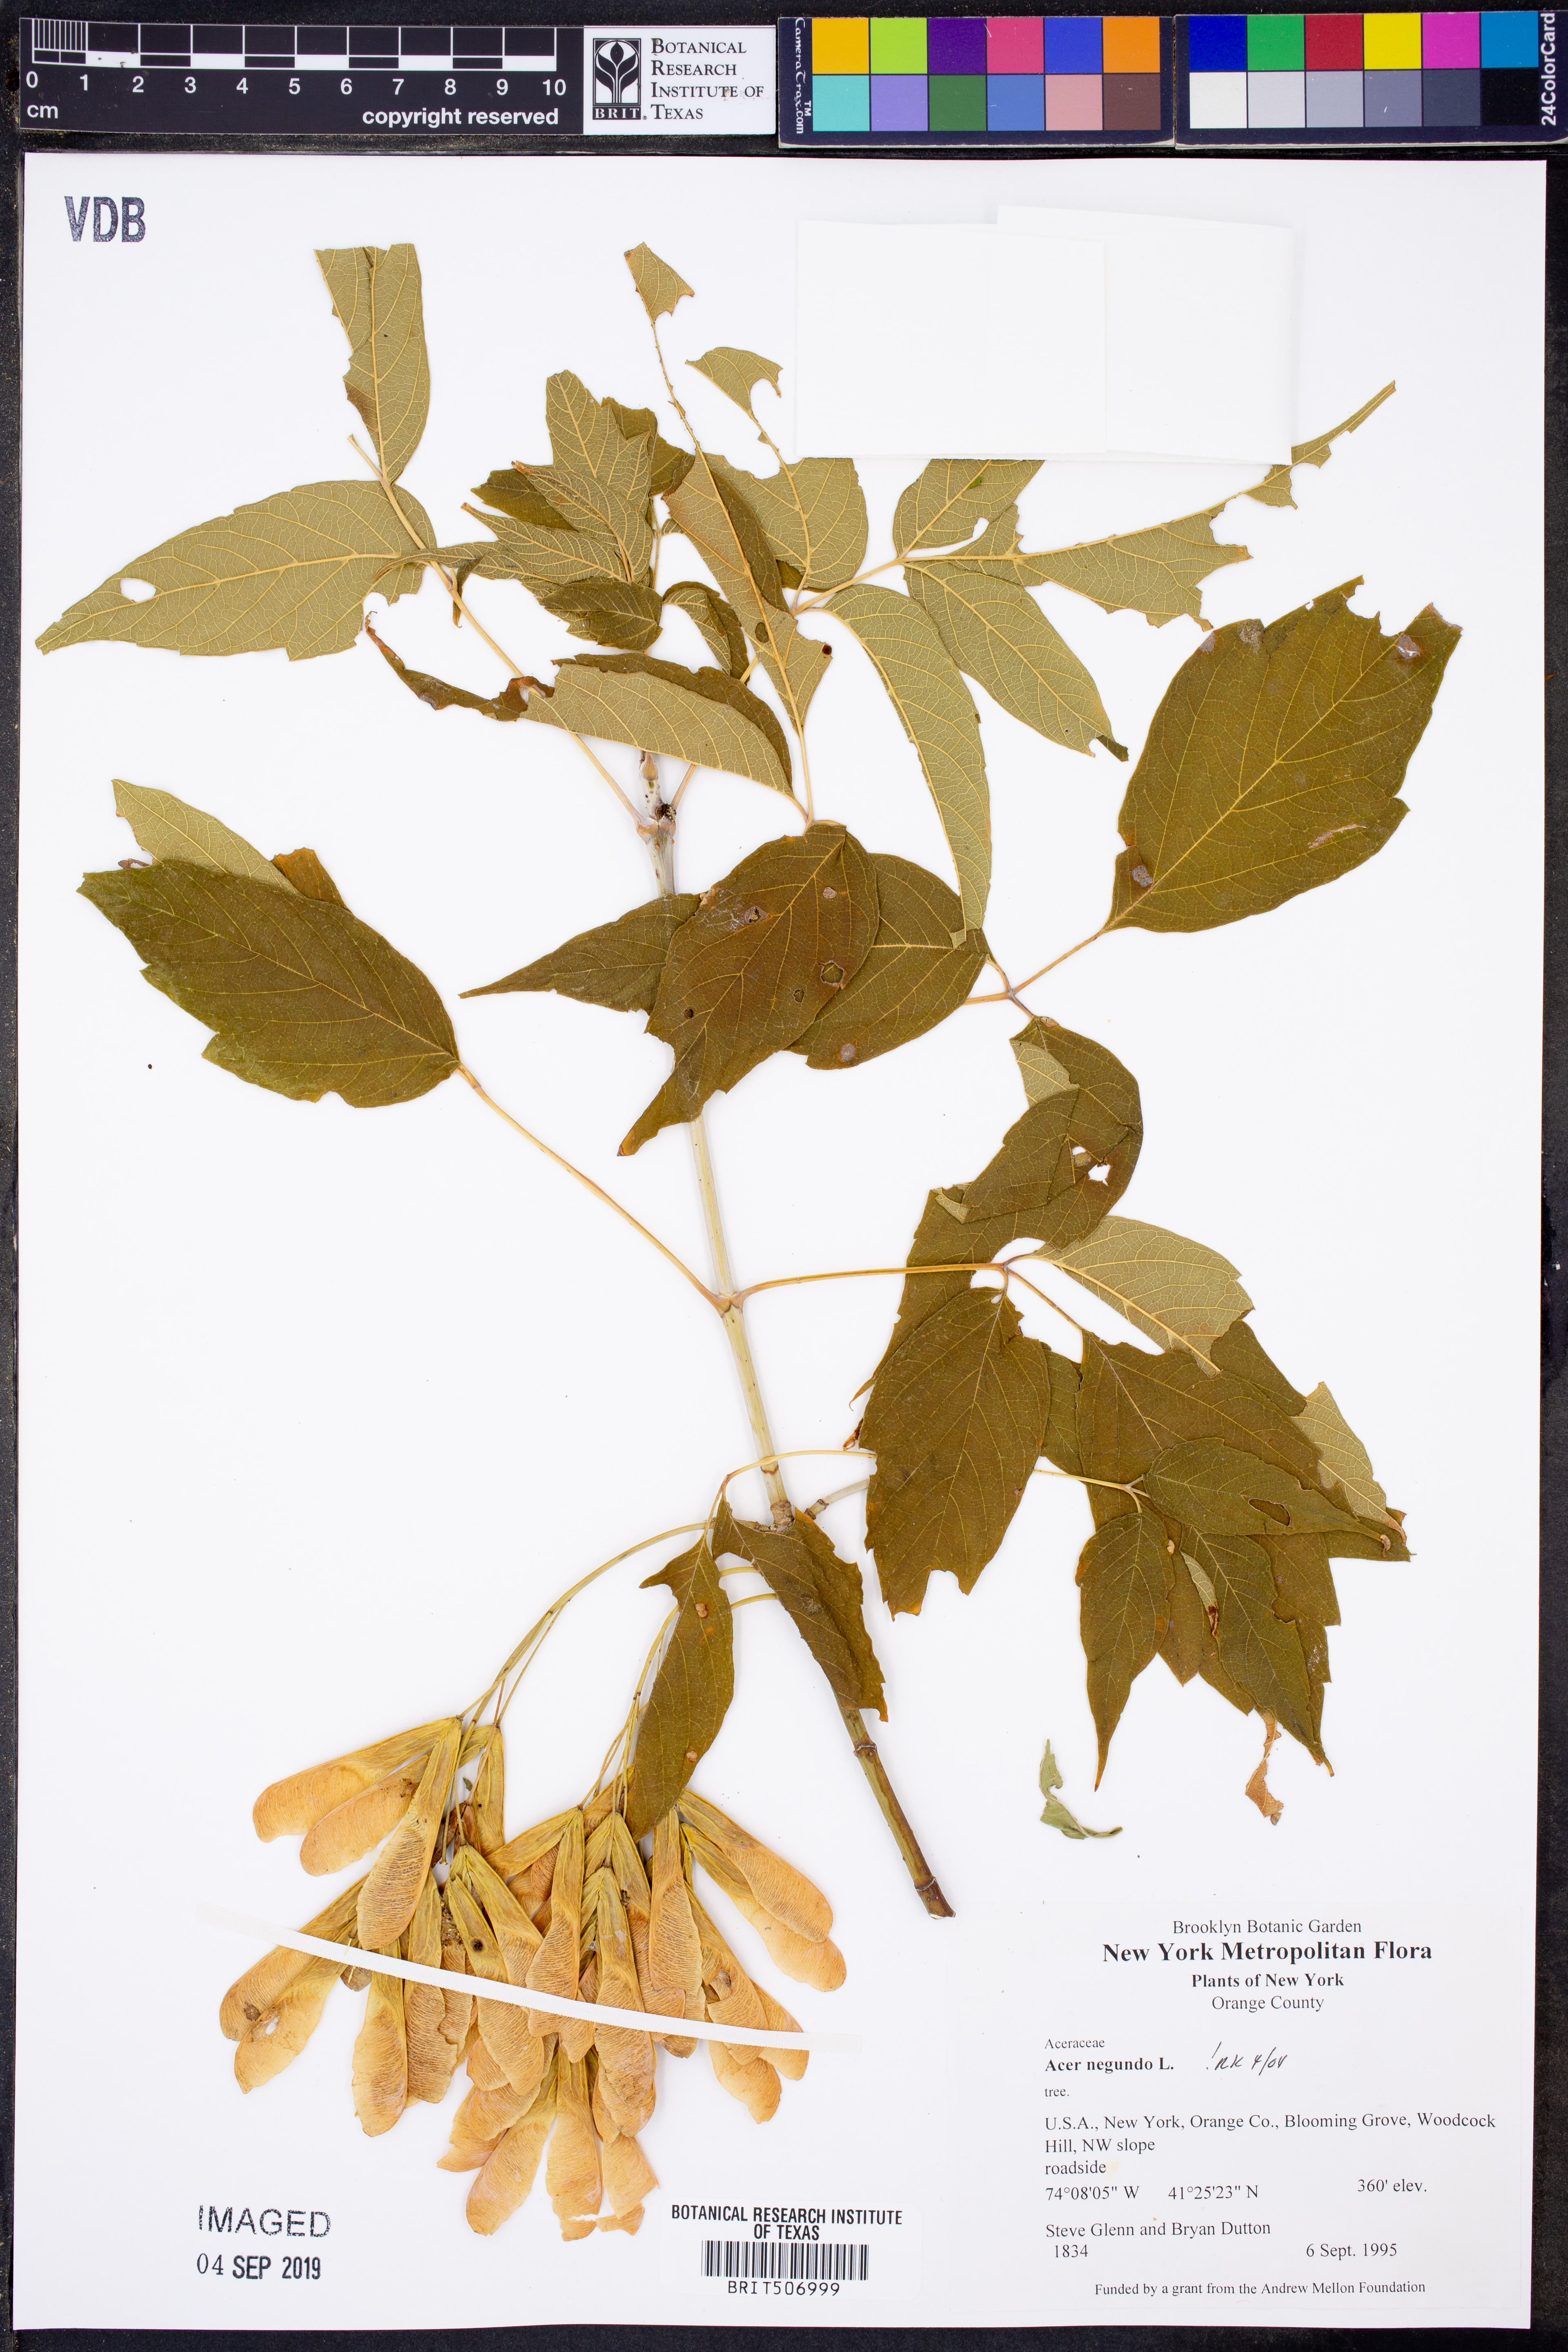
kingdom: Plantae
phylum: Tracheophyta
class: Magnoliopsida
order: Sapindales
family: Sapindaceae
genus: Acer
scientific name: Acer negundo
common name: Ashleaf maple
